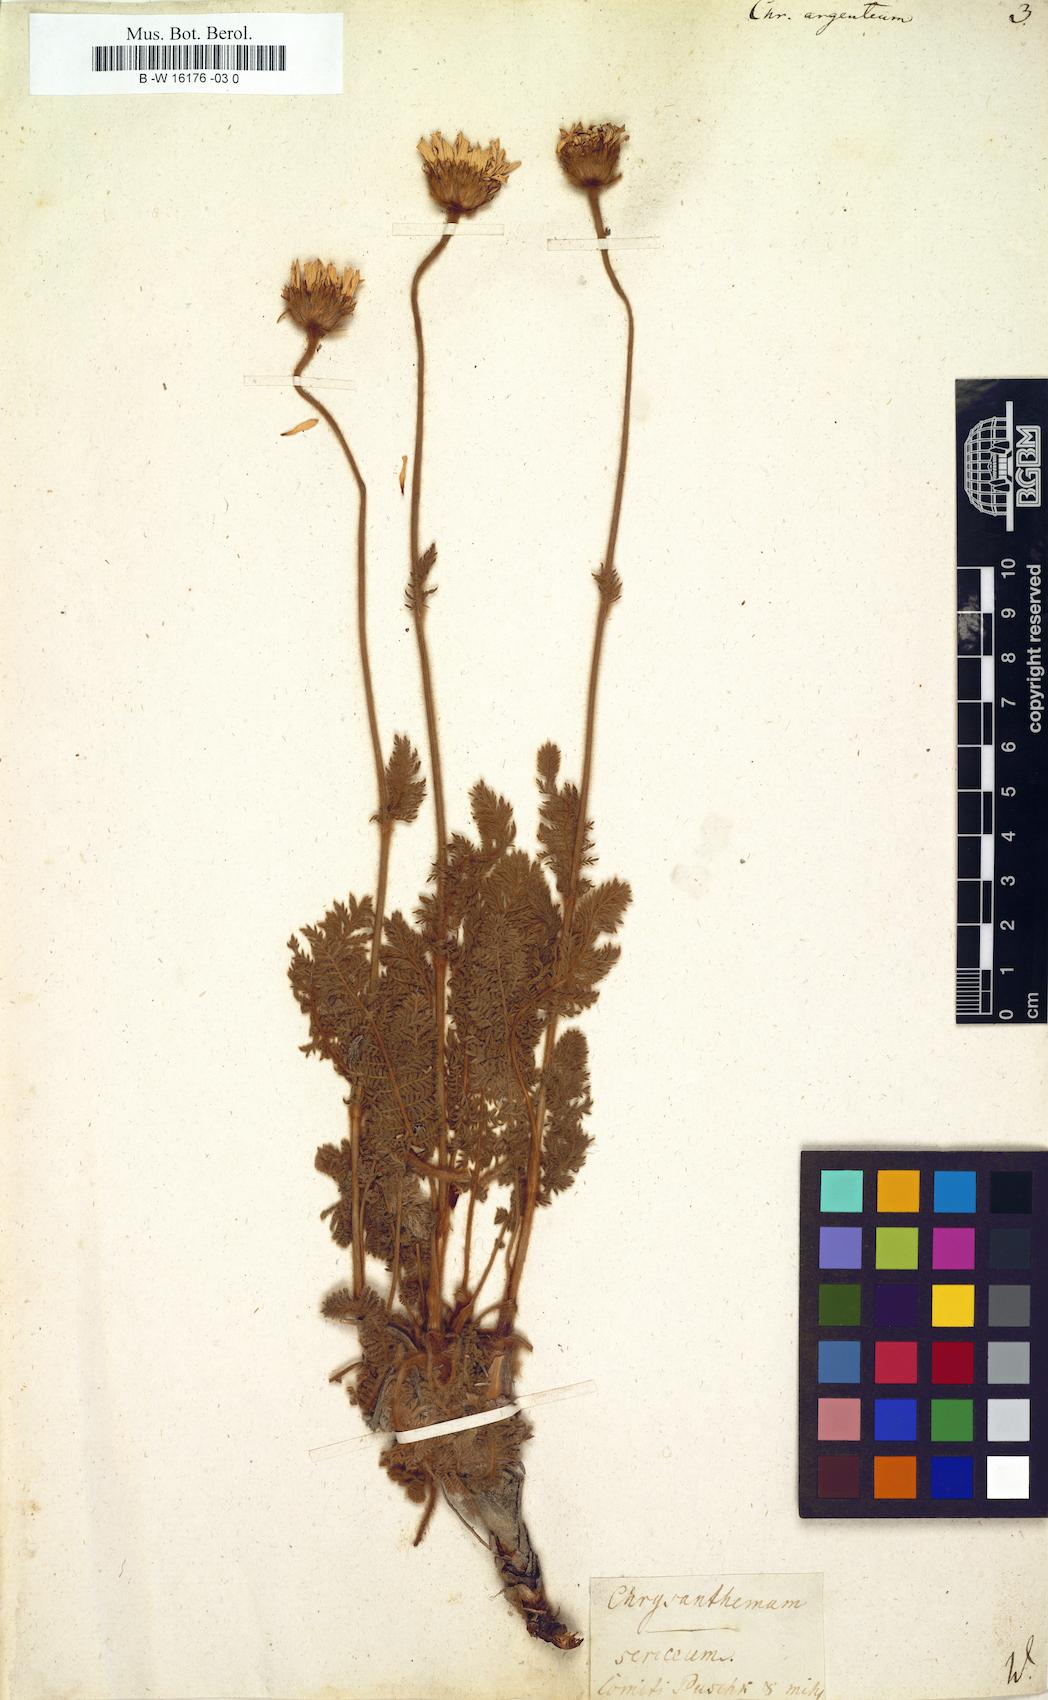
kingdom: Plantae
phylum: Tracheophyta
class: Magnoliopsida
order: Asterales
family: Asteraceae
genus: Tanacetum
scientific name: Tanacetum
